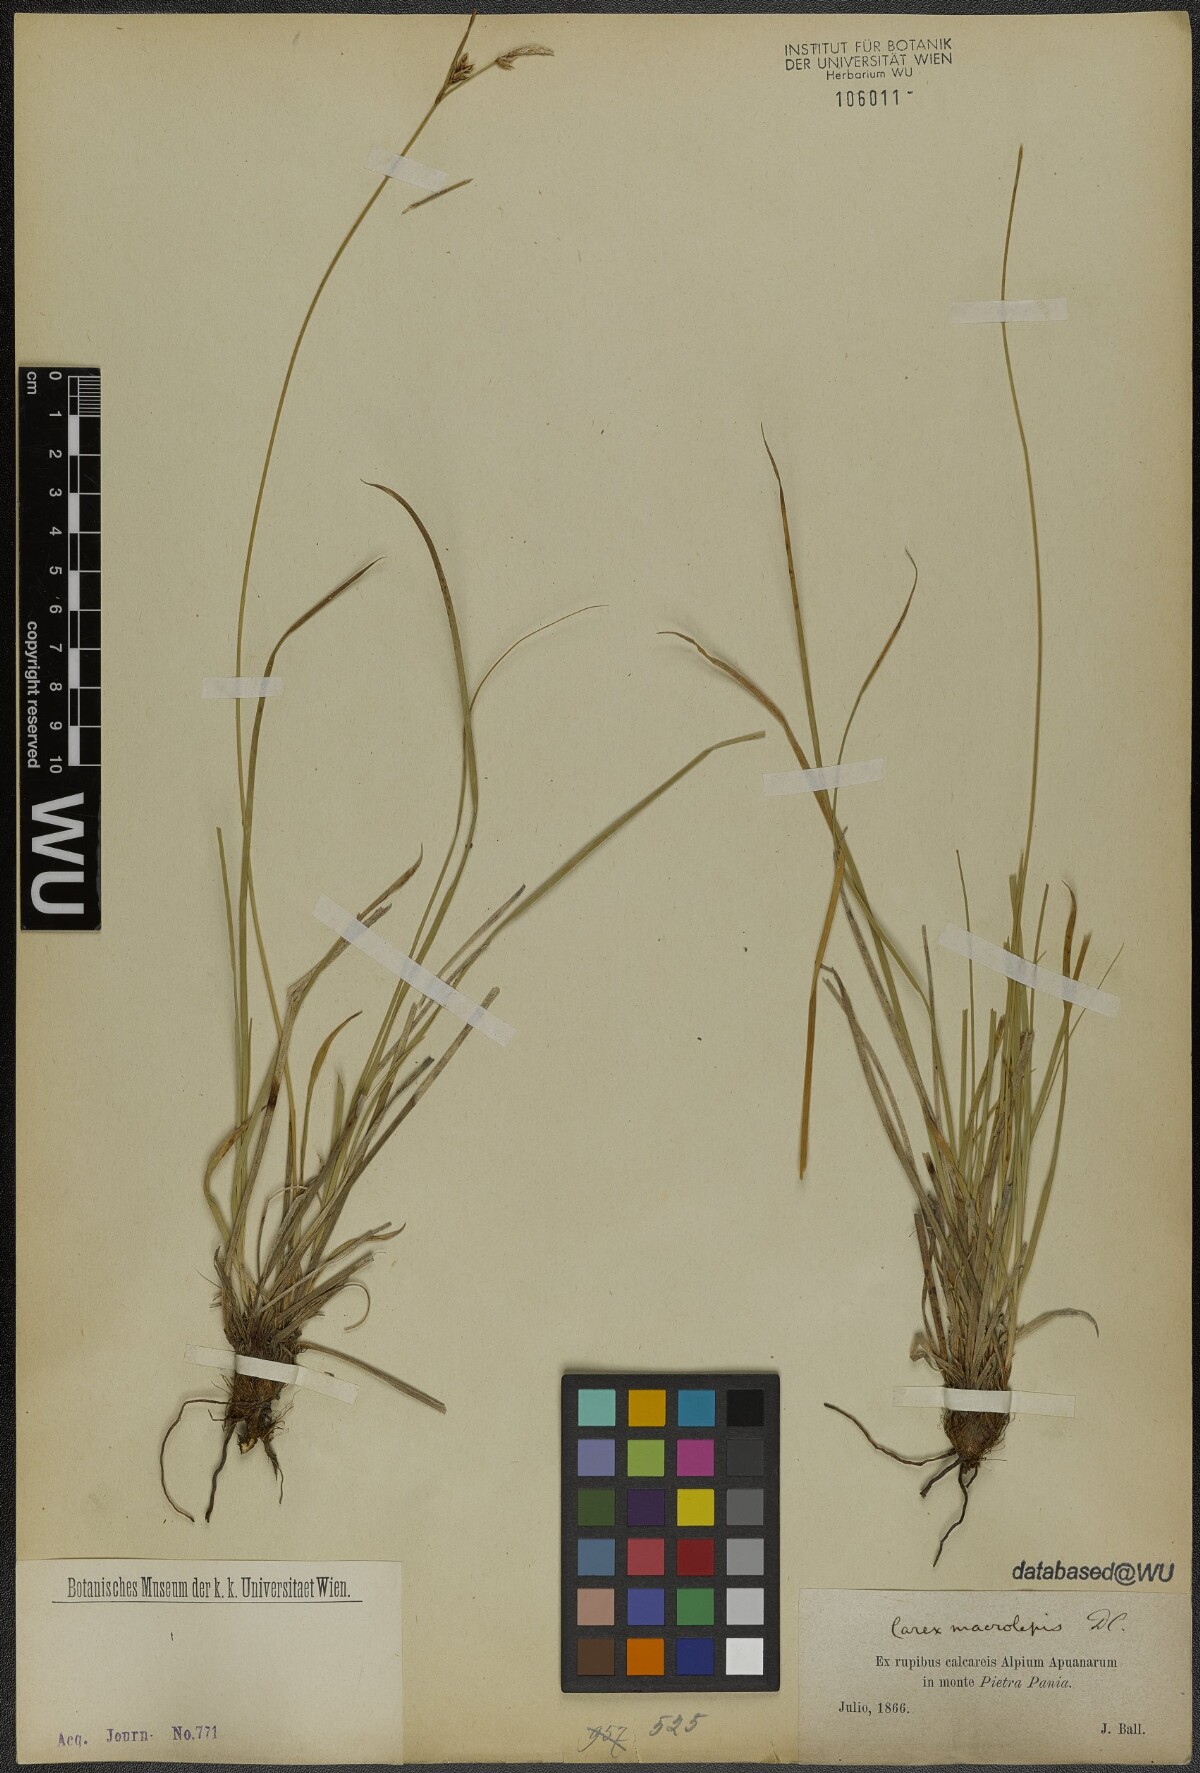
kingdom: Plantae
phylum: Tracheophyta
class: Liliopsida
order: Poales
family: Cyperaceae
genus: Carex
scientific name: Carex macrolepis
